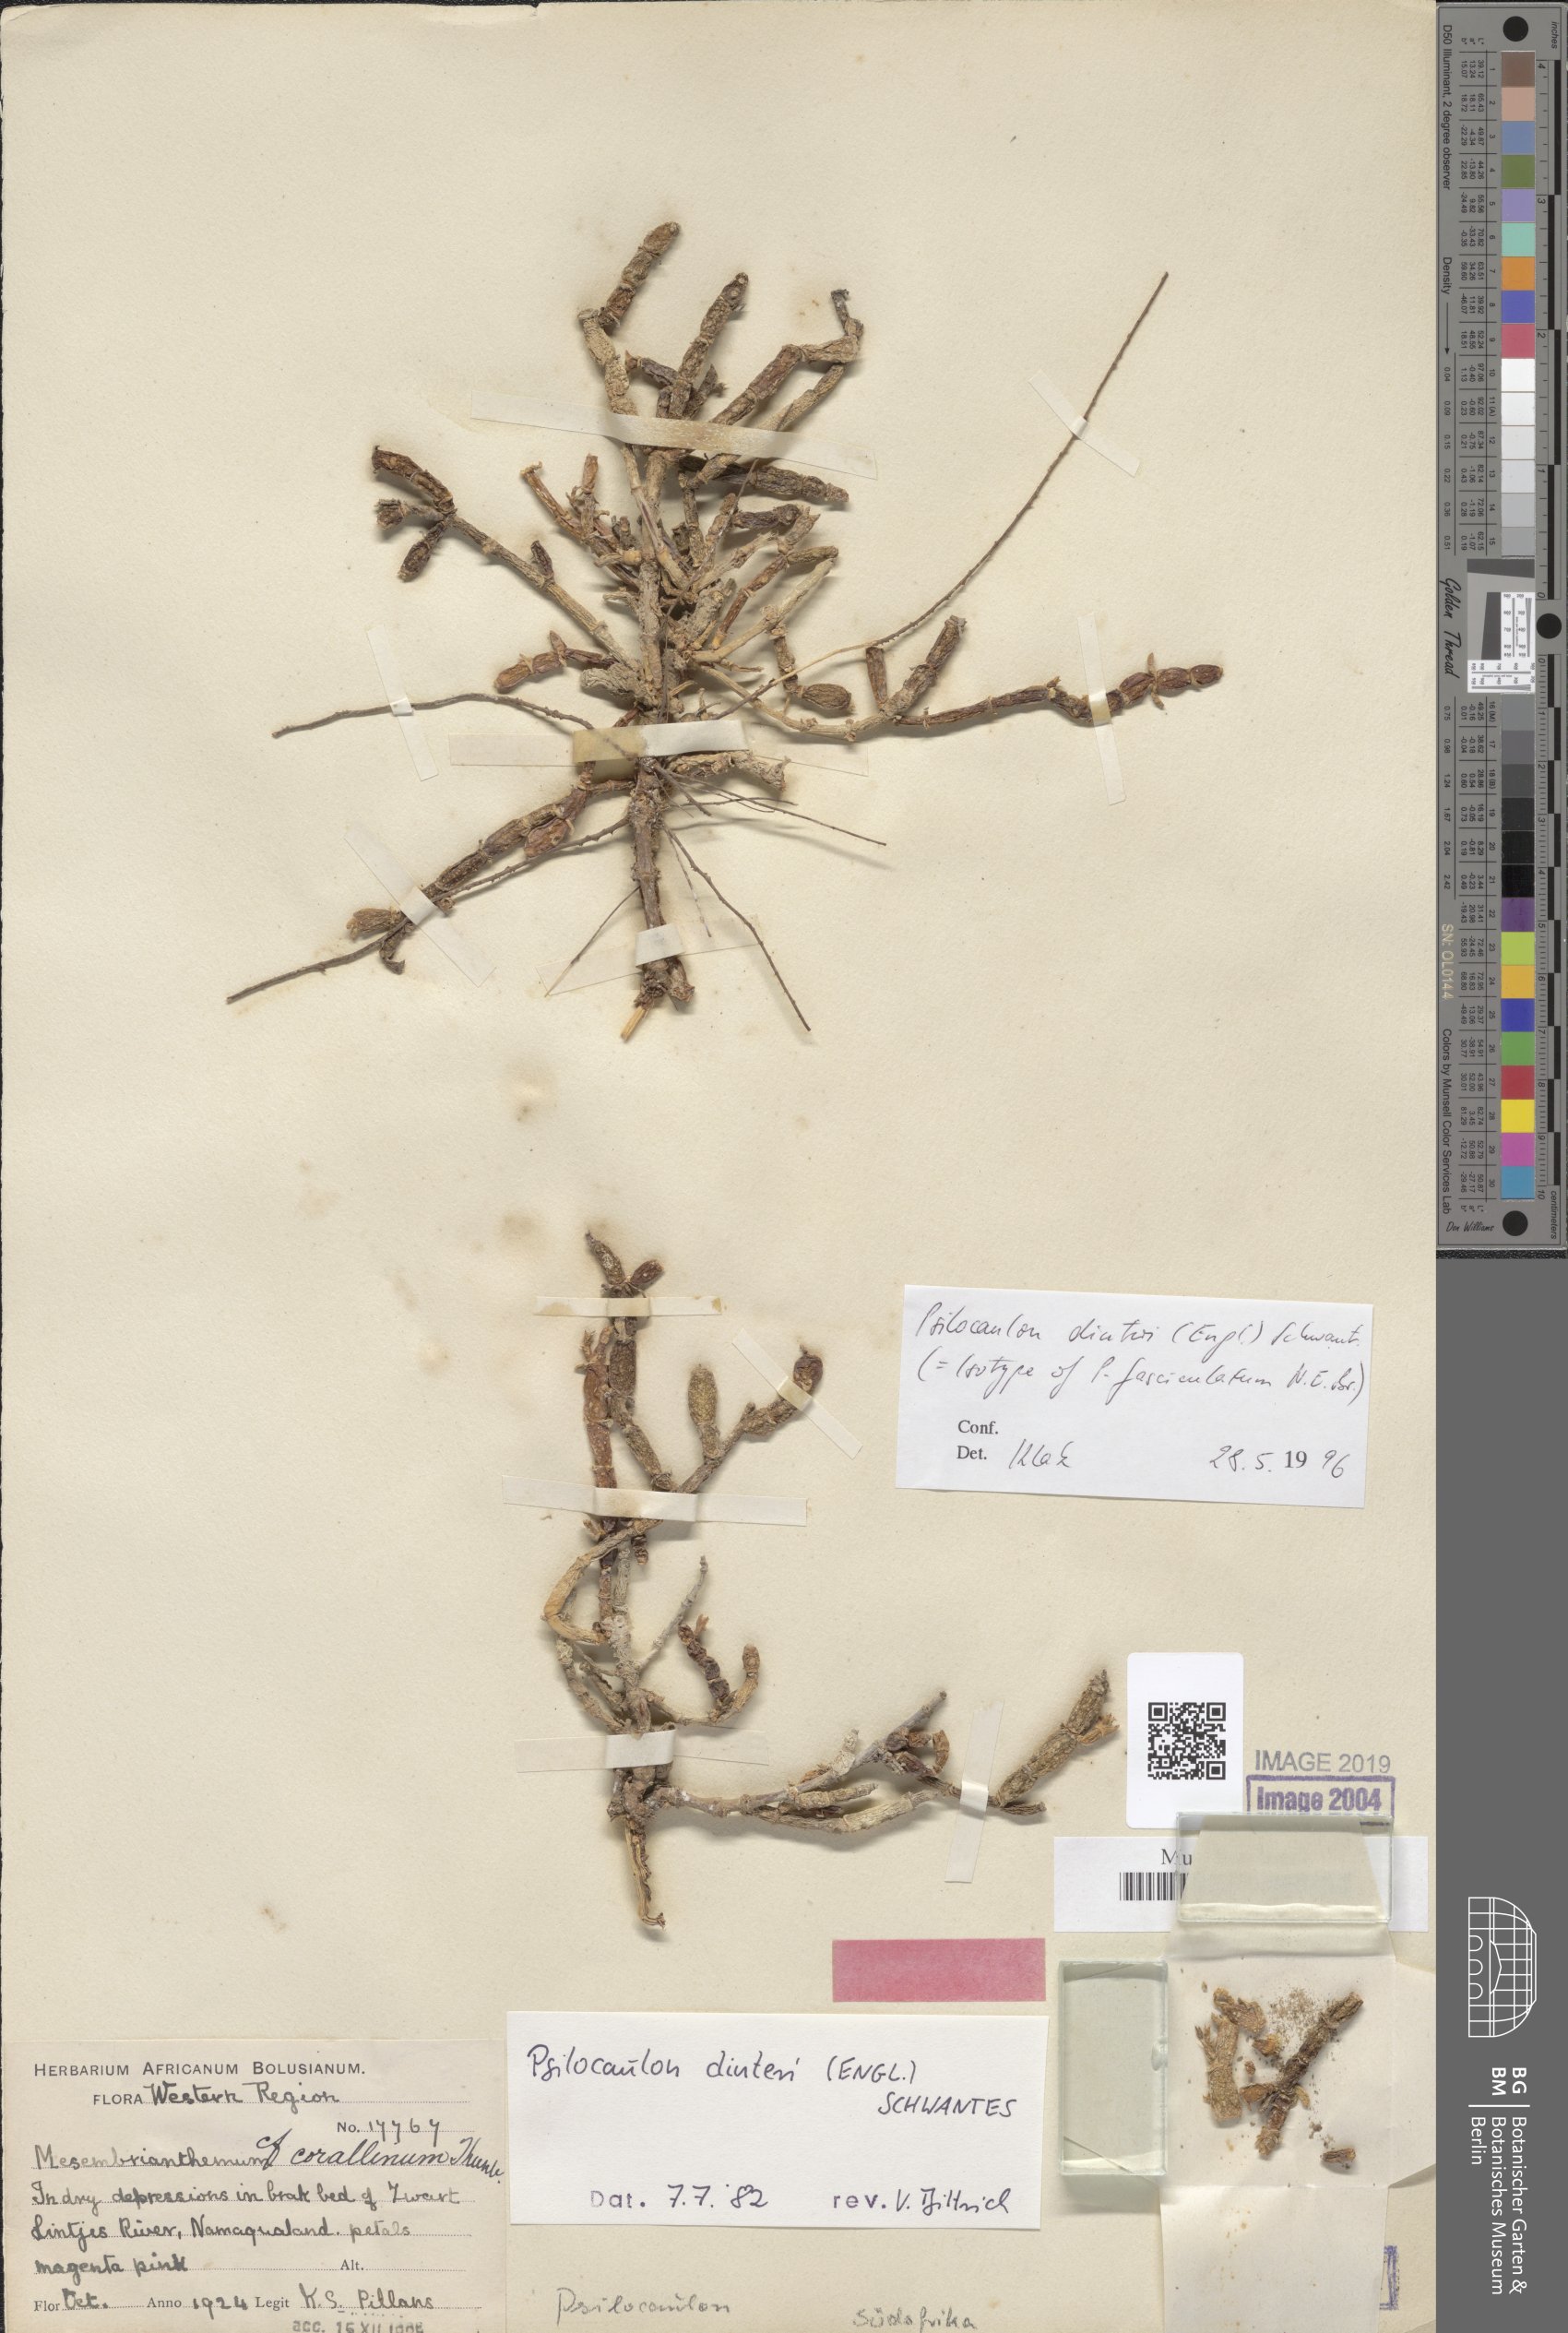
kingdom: Plantae
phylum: Tracheophyta
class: Magnoliopsida
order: Caryophyllales
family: Aizoaceae
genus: Mesembryanthemum
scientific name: Mesembryanthemum dinteri
